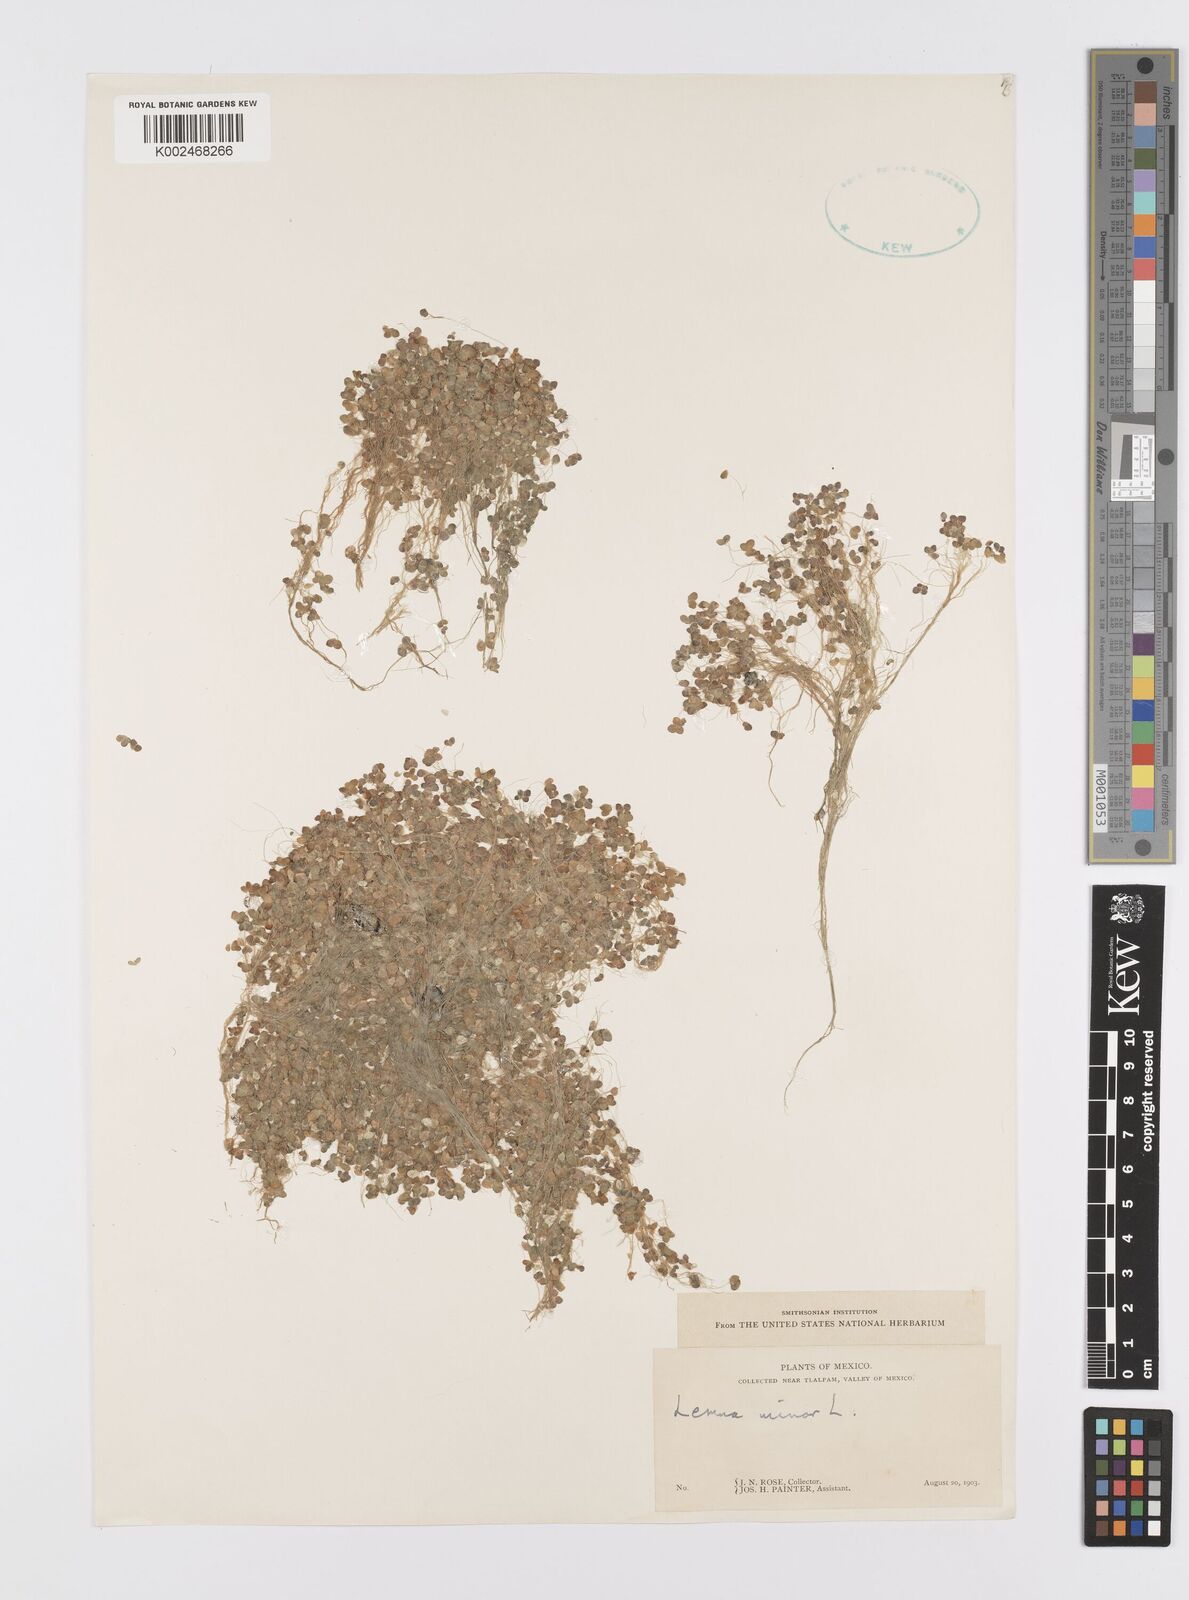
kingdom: Plantae
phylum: Tracheophyta
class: Liliopsida
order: Alismatales
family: Araceae
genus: Lemna
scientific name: Lemna minor
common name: Common duckweed
